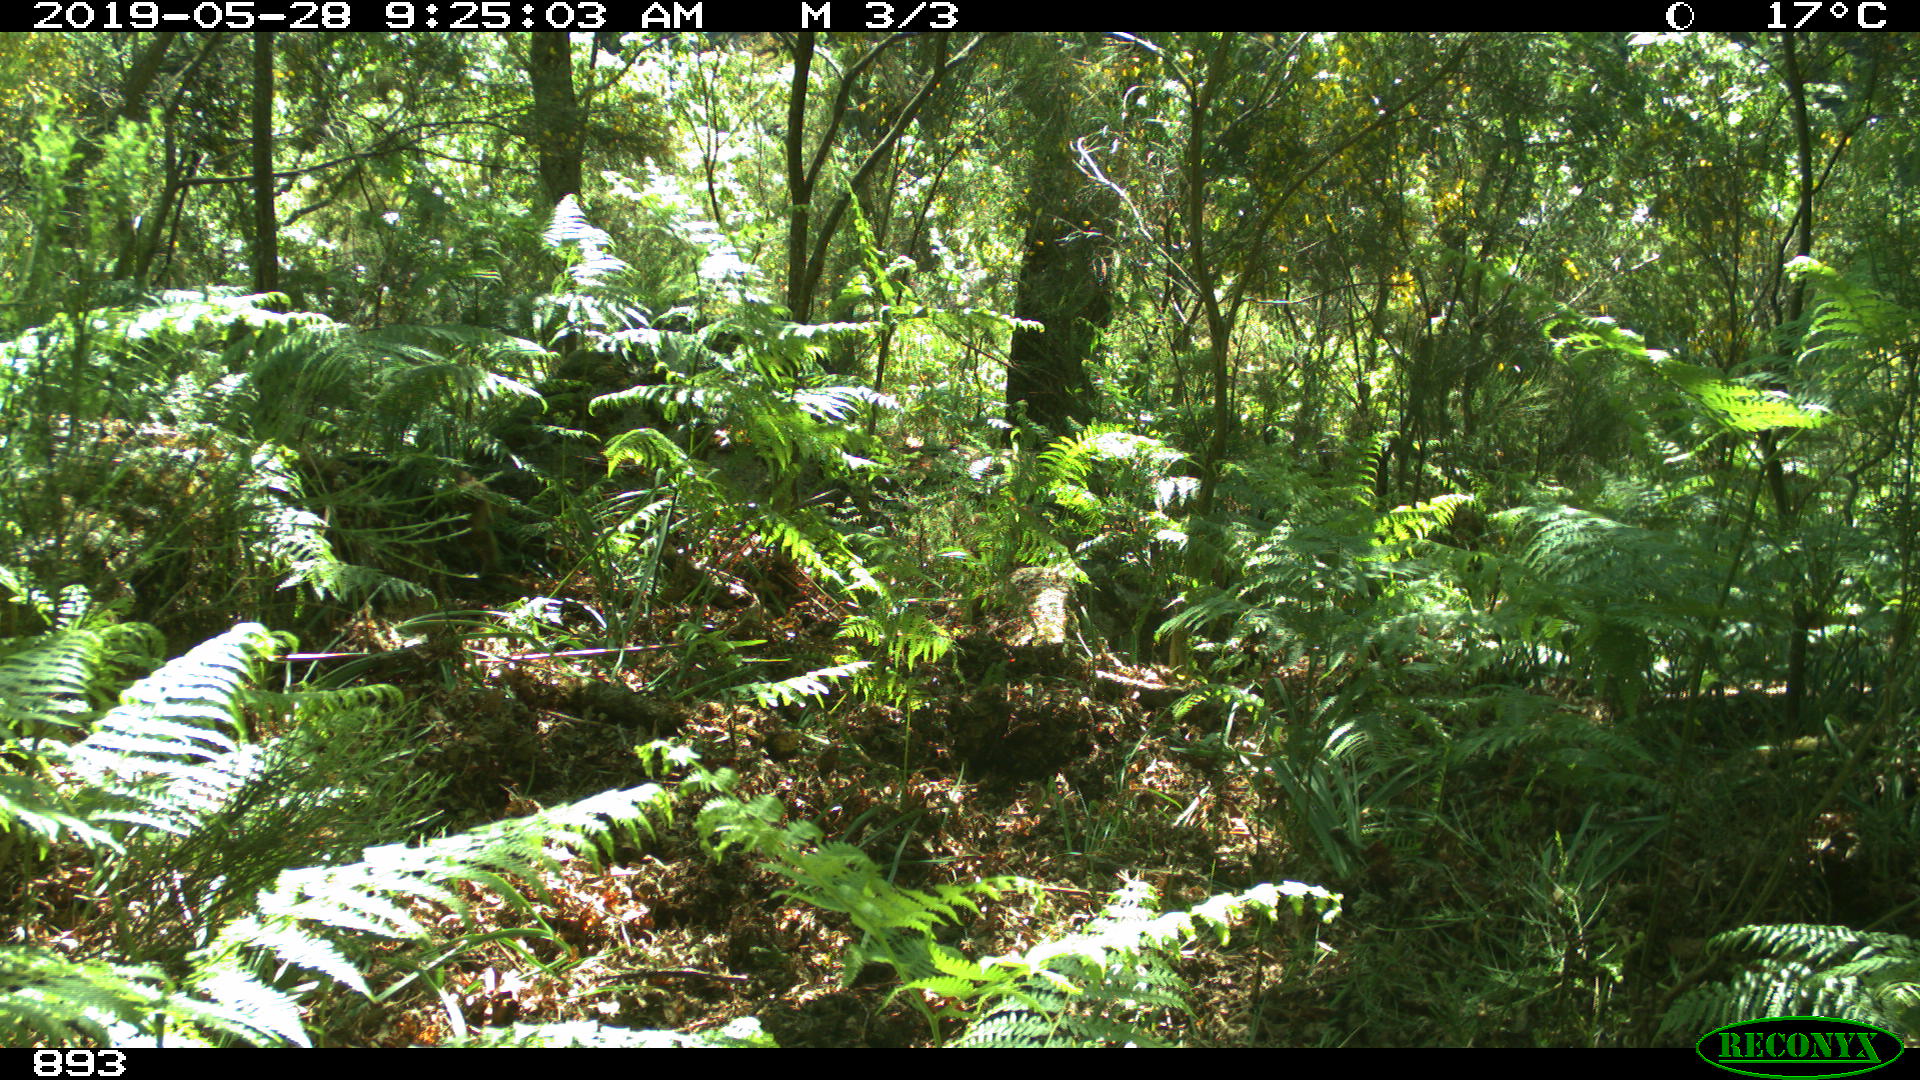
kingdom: Animalia
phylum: Chordata
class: Mammalia
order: Artiodactyla
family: Suidae
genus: Sus
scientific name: Sus scrofa
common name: Wild boar
